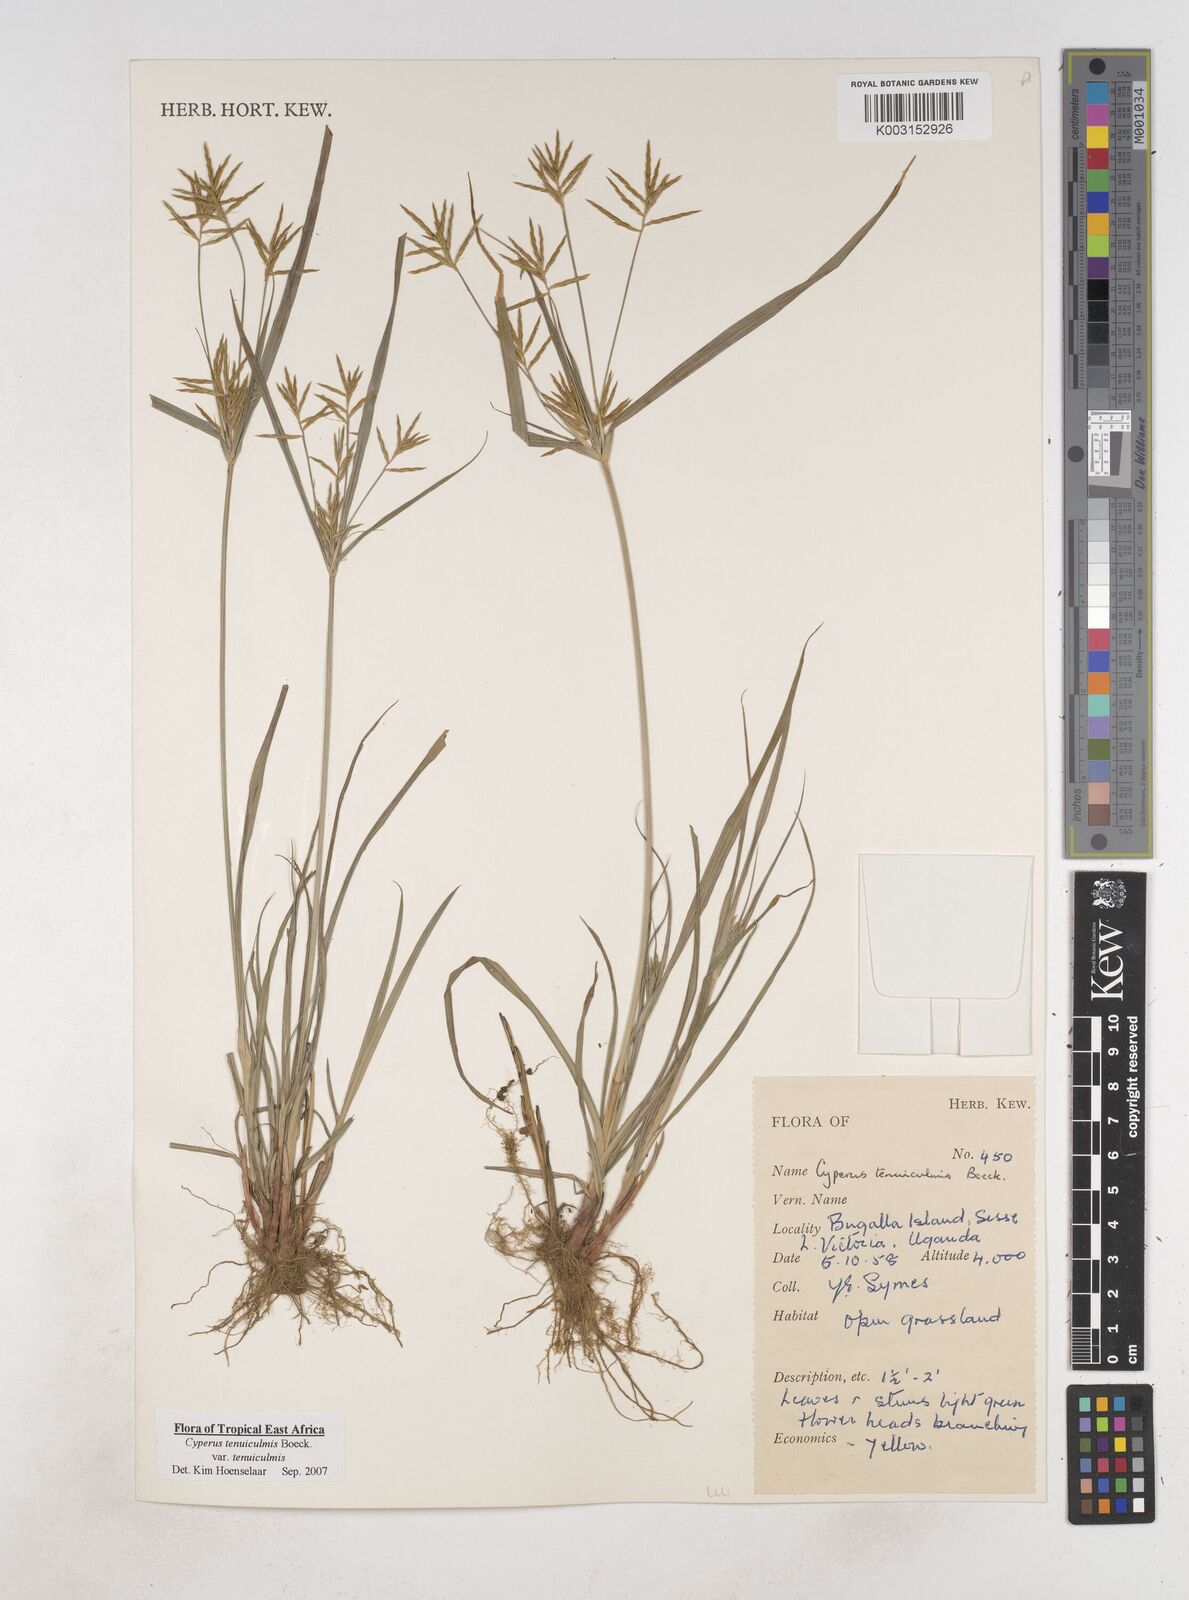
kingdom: Plantae
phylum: Tracheophyta
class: Liliopsida
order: Poales
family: Cyperaceae
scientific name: Cyperaceae
